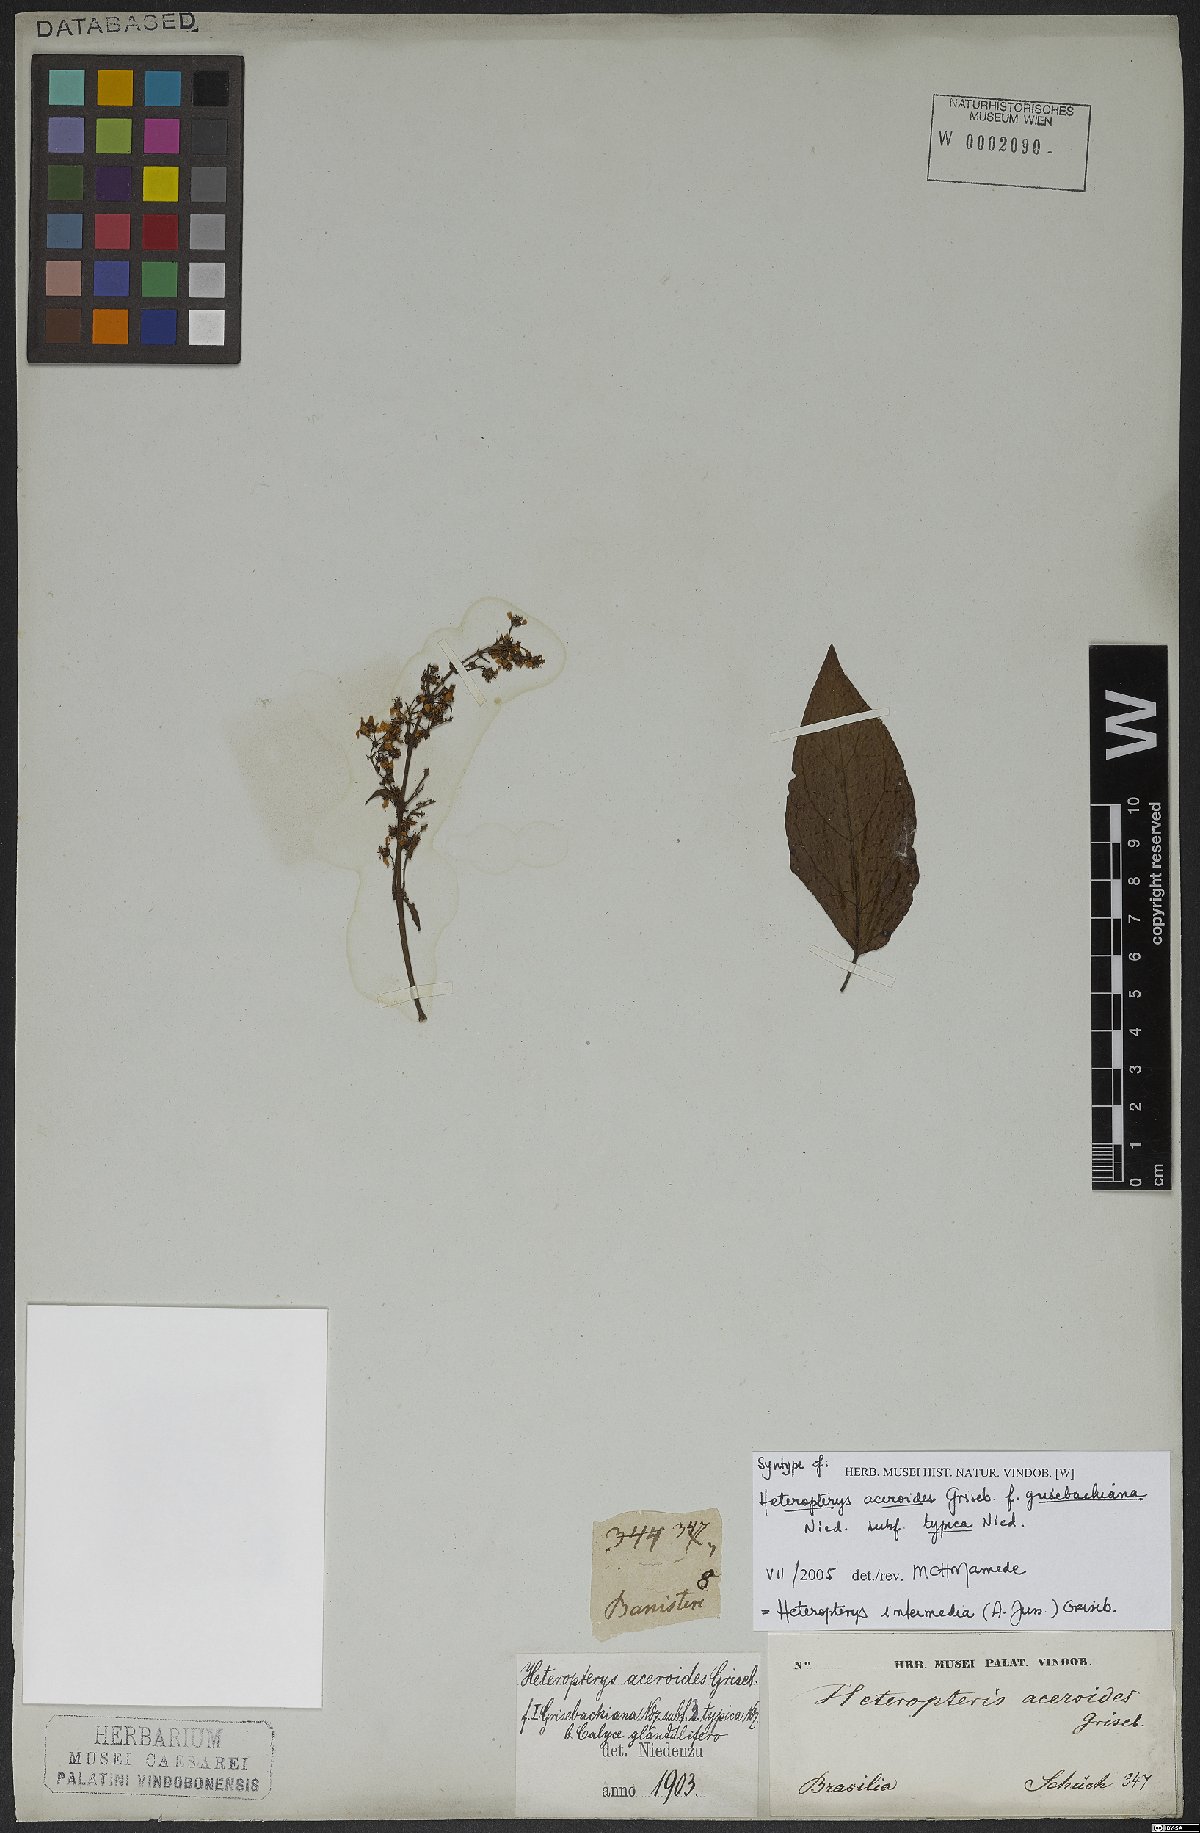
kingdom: Plantae
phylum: Tracheophyta
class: Magnoliopsida
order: Malpighiales
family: Malpighiaceae
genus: Heteropterys
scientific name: Heteropterys intermedia
